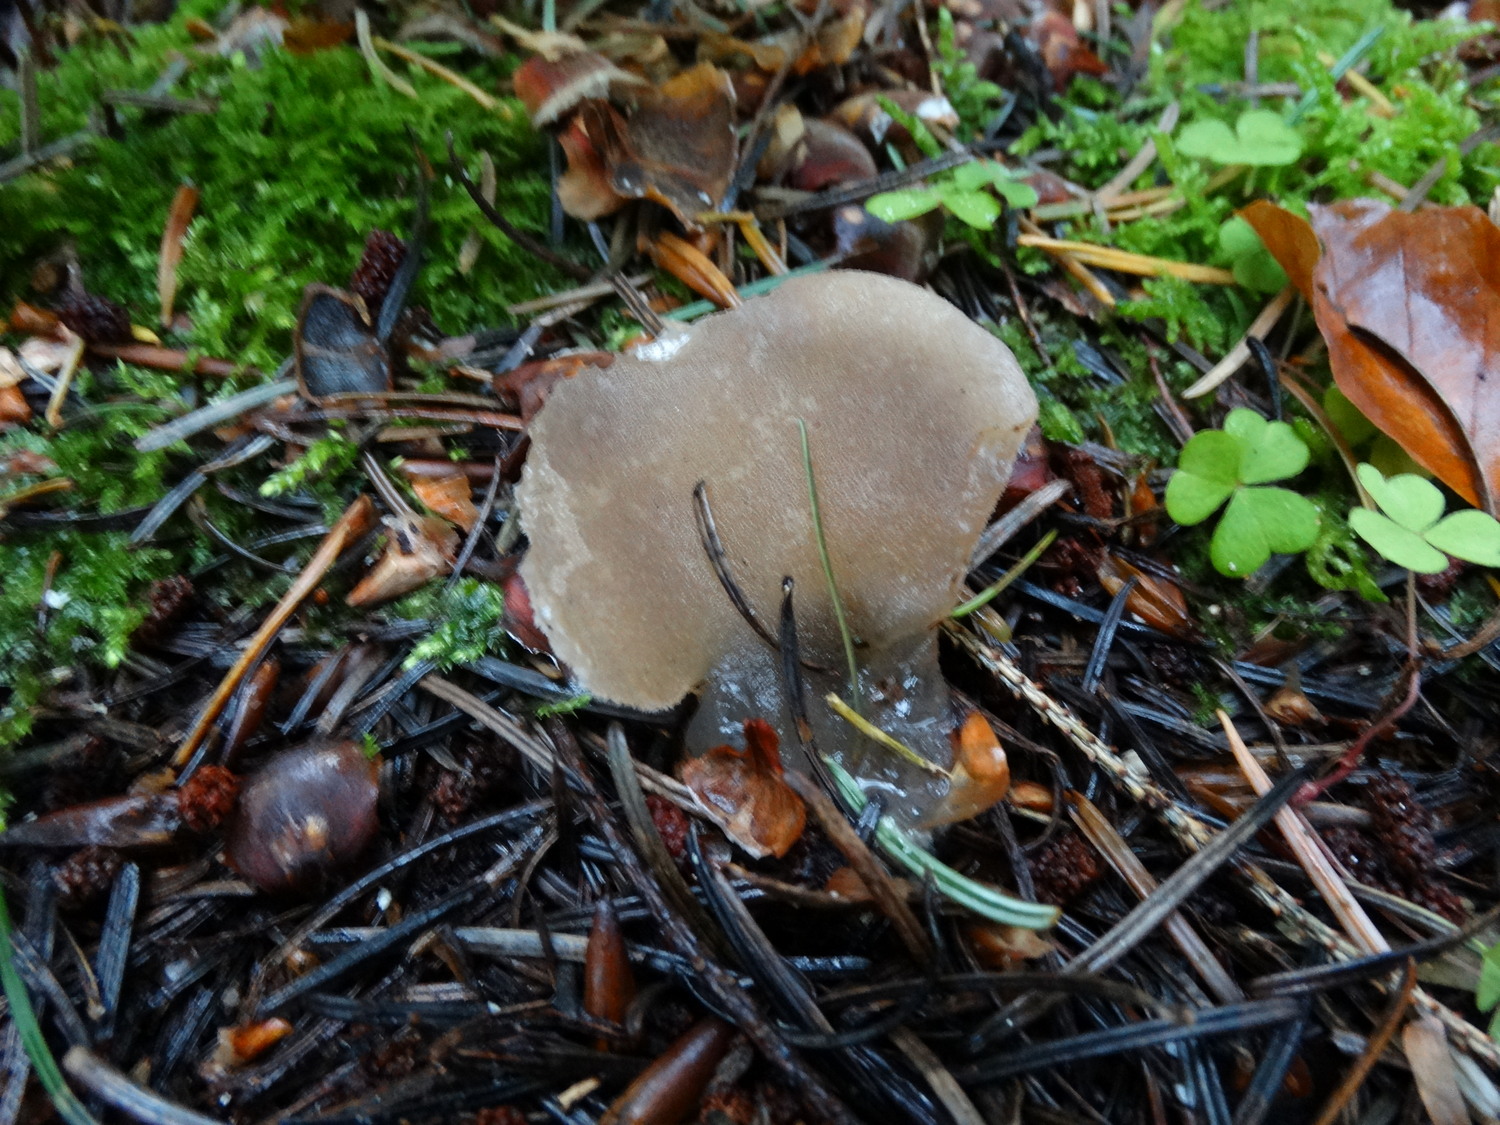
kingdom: Fungi
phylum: Basidiomycota
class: Agaricomycetes
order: Auriculariales
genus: Pseudohydnum
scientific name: Pseudohydnum gelatinosum
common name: bævretand
